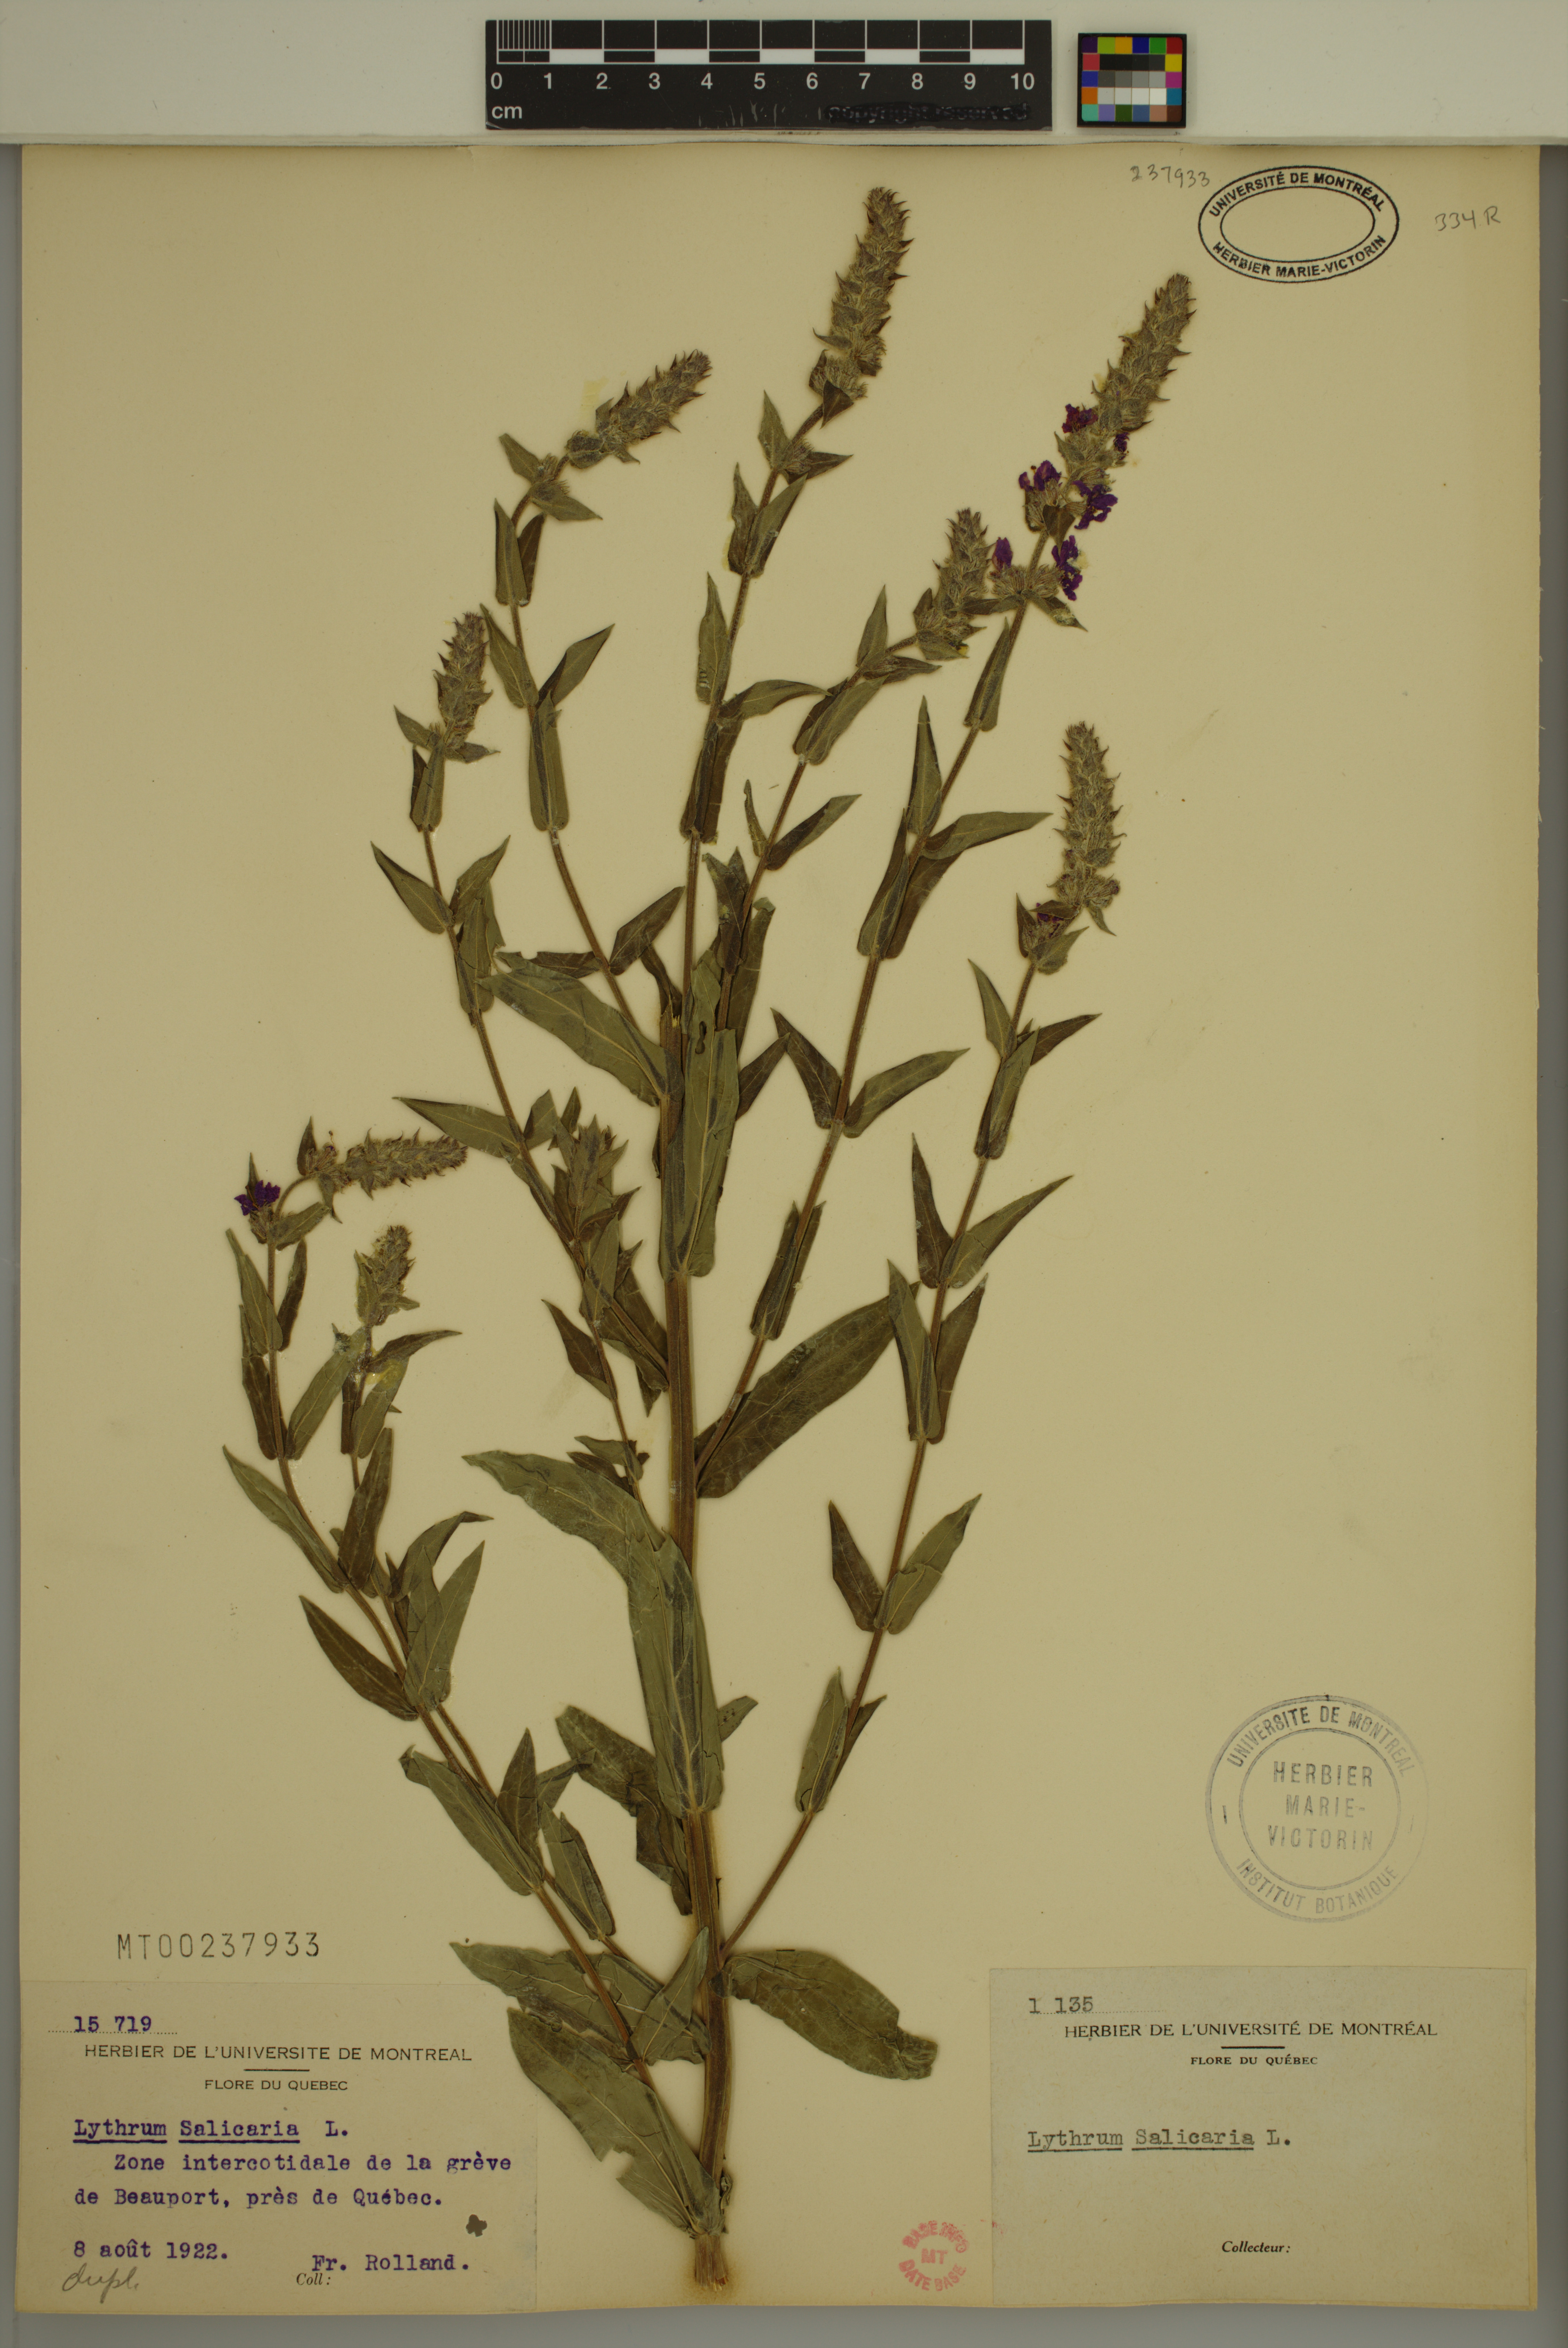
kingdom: Plantae
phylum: Tracheophyta
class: Magnoliopsida
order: Myrtales
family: Lythraceae
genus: Lythrum
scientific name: Lythrum salicaria
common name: Purple loosestrife
